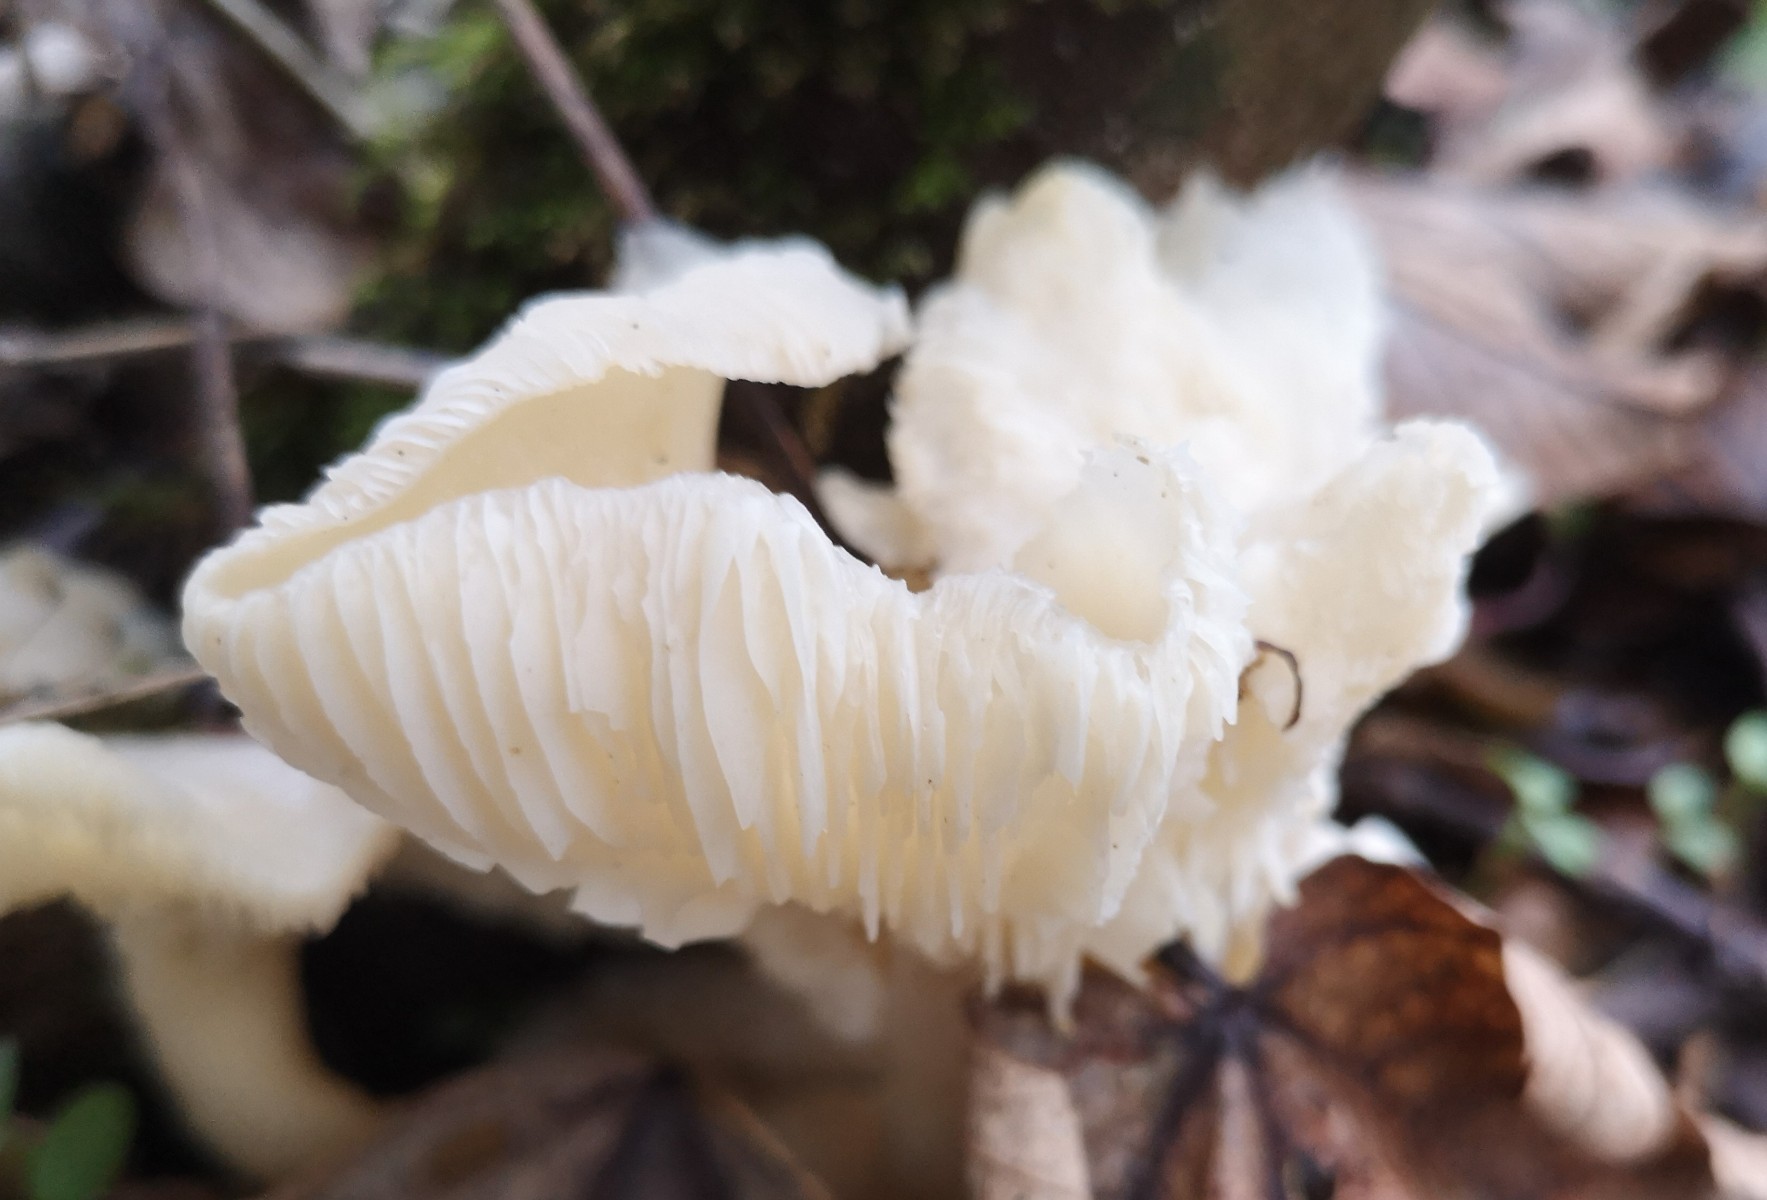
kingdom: Fungi
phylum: Basidiomycota
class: Agaricomycetes
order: Agaricales
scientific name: Agaricales
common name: champignonordenen
